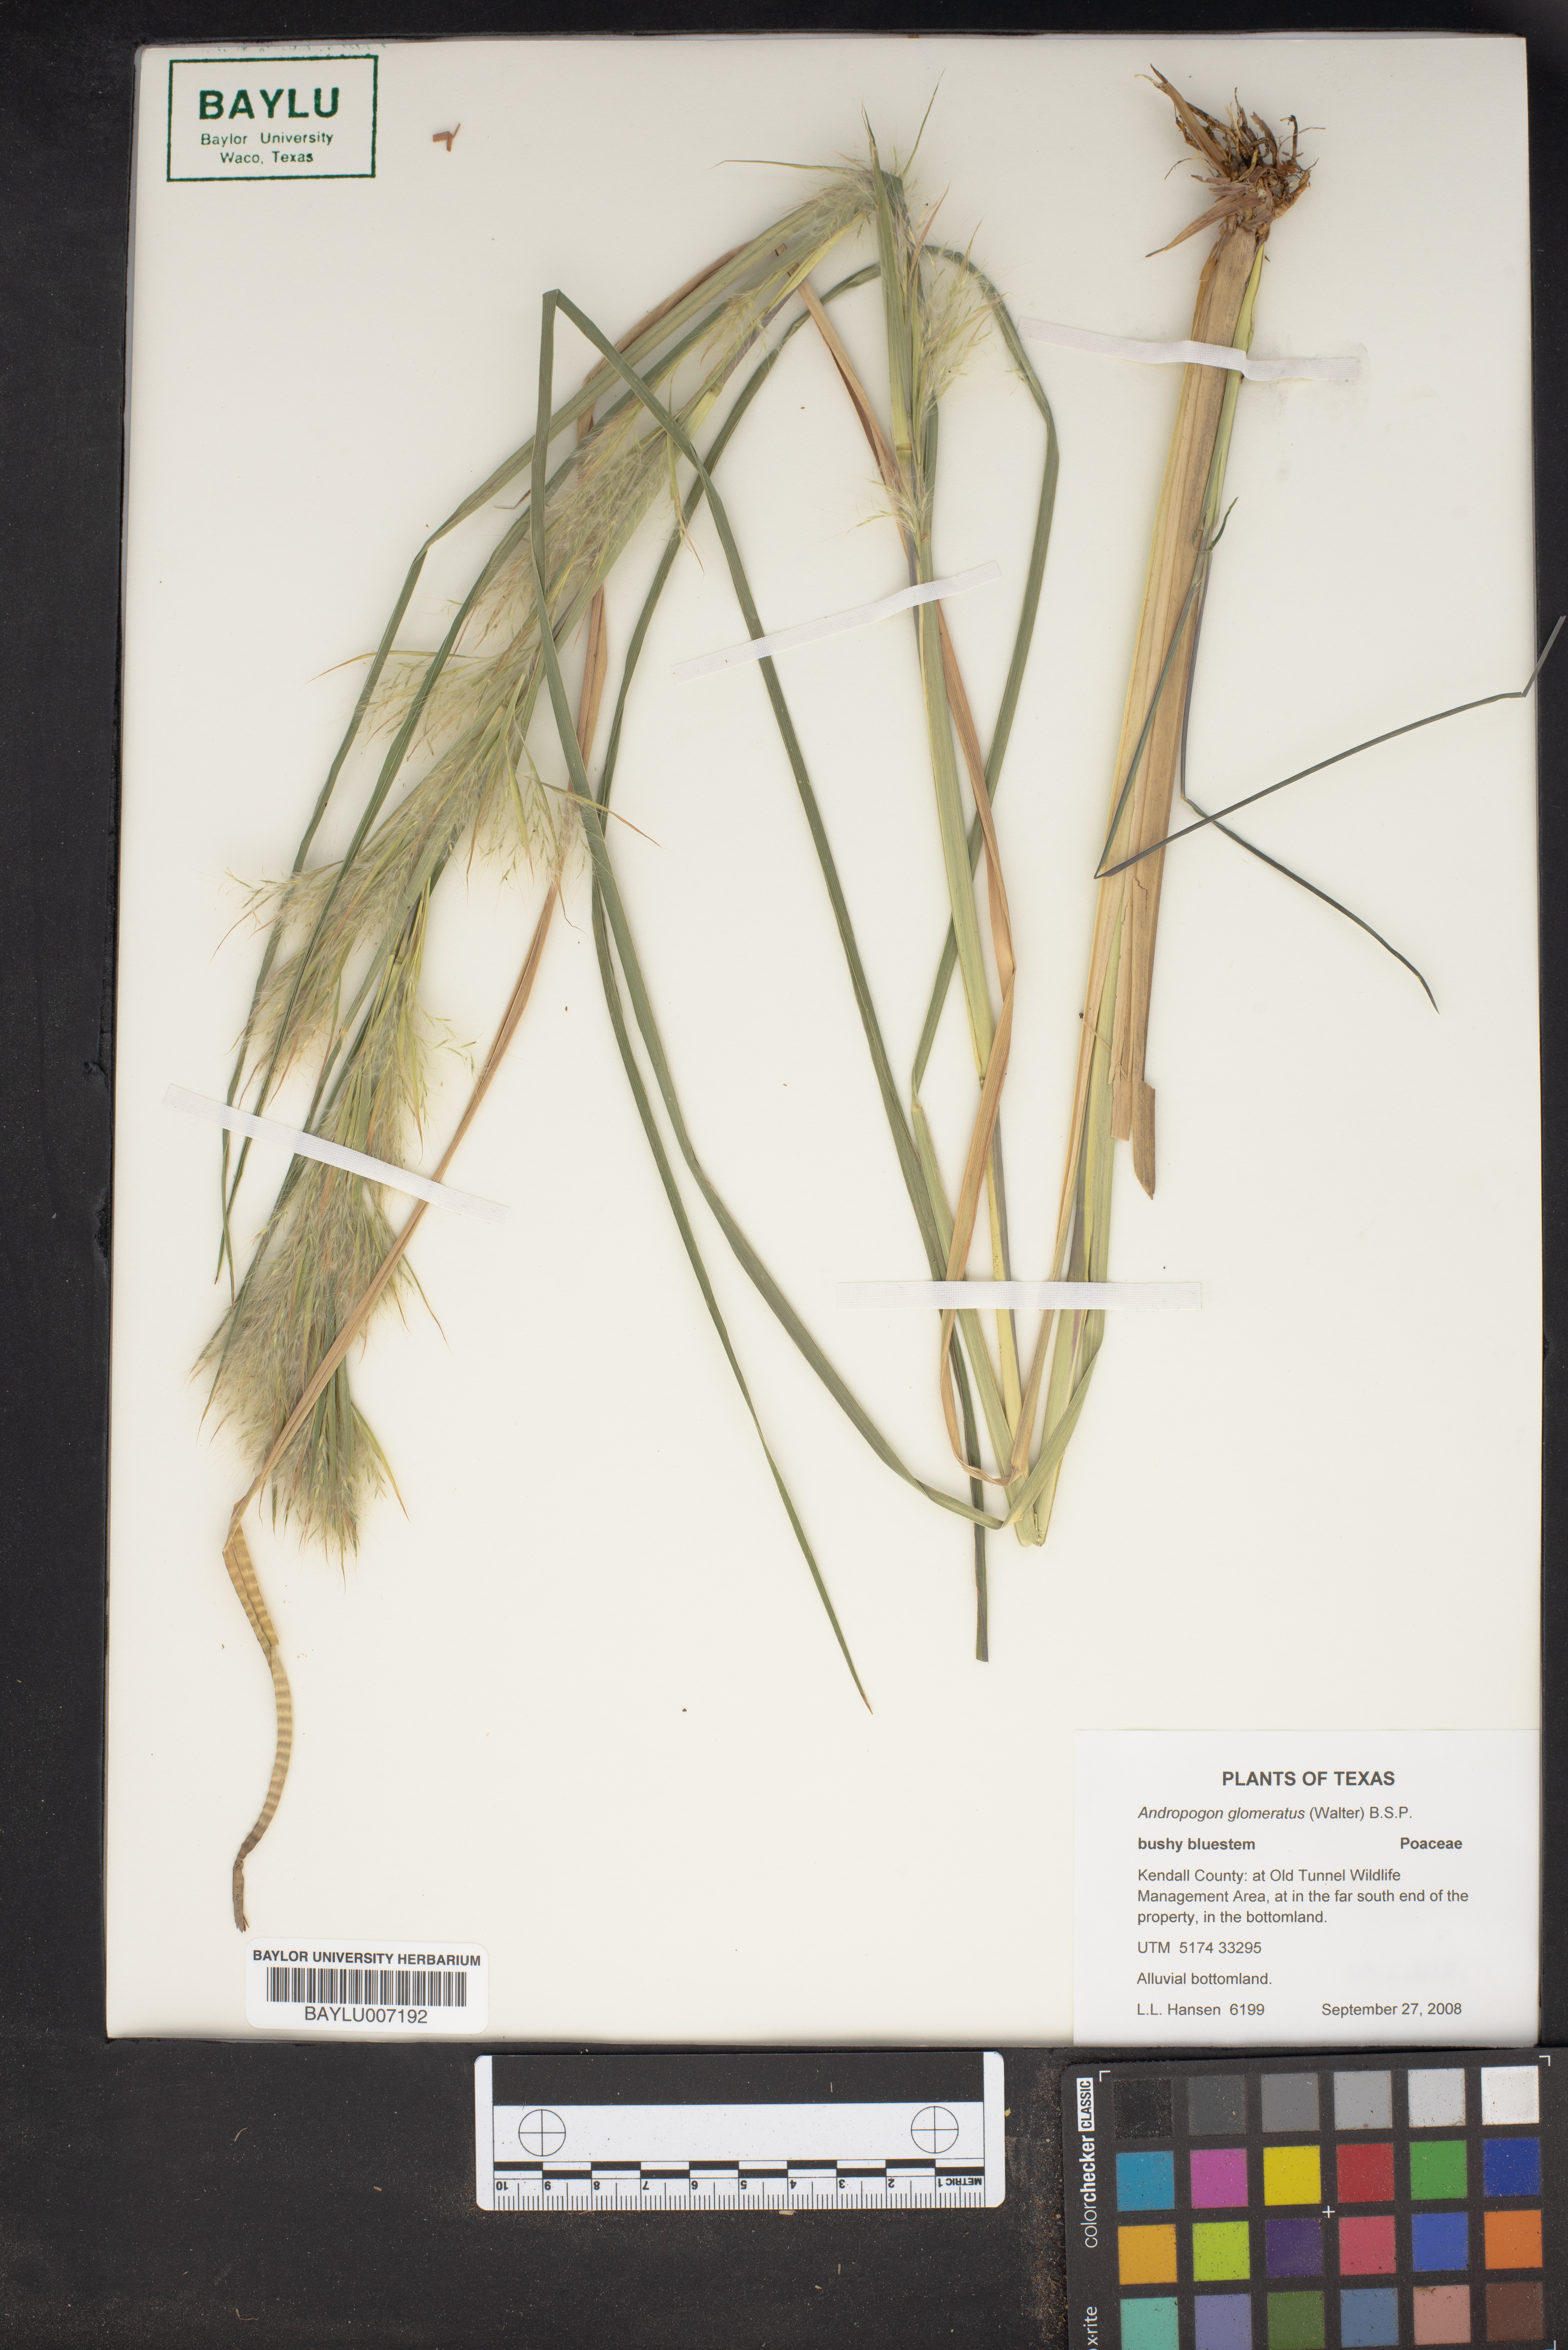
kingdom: Plantae
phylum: Tracheophyta
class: Liliopsida
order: Poales
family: Poaceae
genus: Andropogon
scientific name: Andropogon glomeratus
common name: Bushy beard grass
